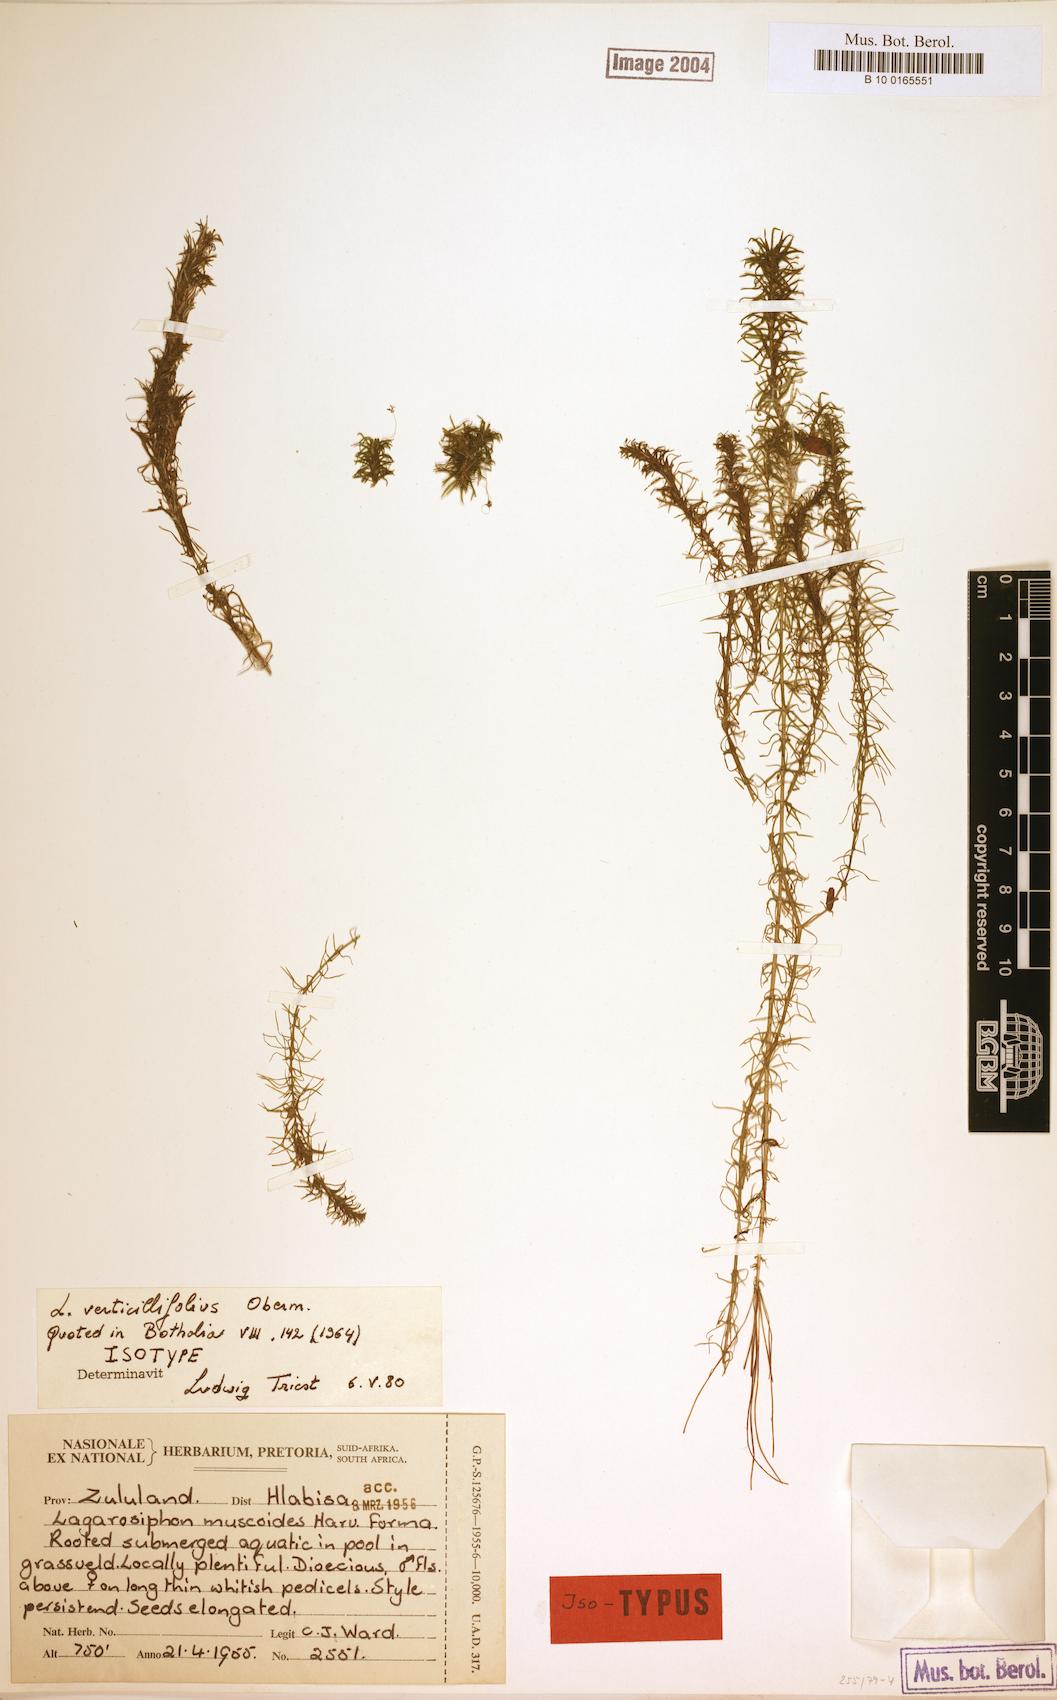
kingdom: Plantae
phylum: Tracheophyta
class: Liliopsida
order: Alismatales
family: Hydrocharitaceae
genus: Lagarosiphon
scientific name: Lagarosiphon verticillifolius
